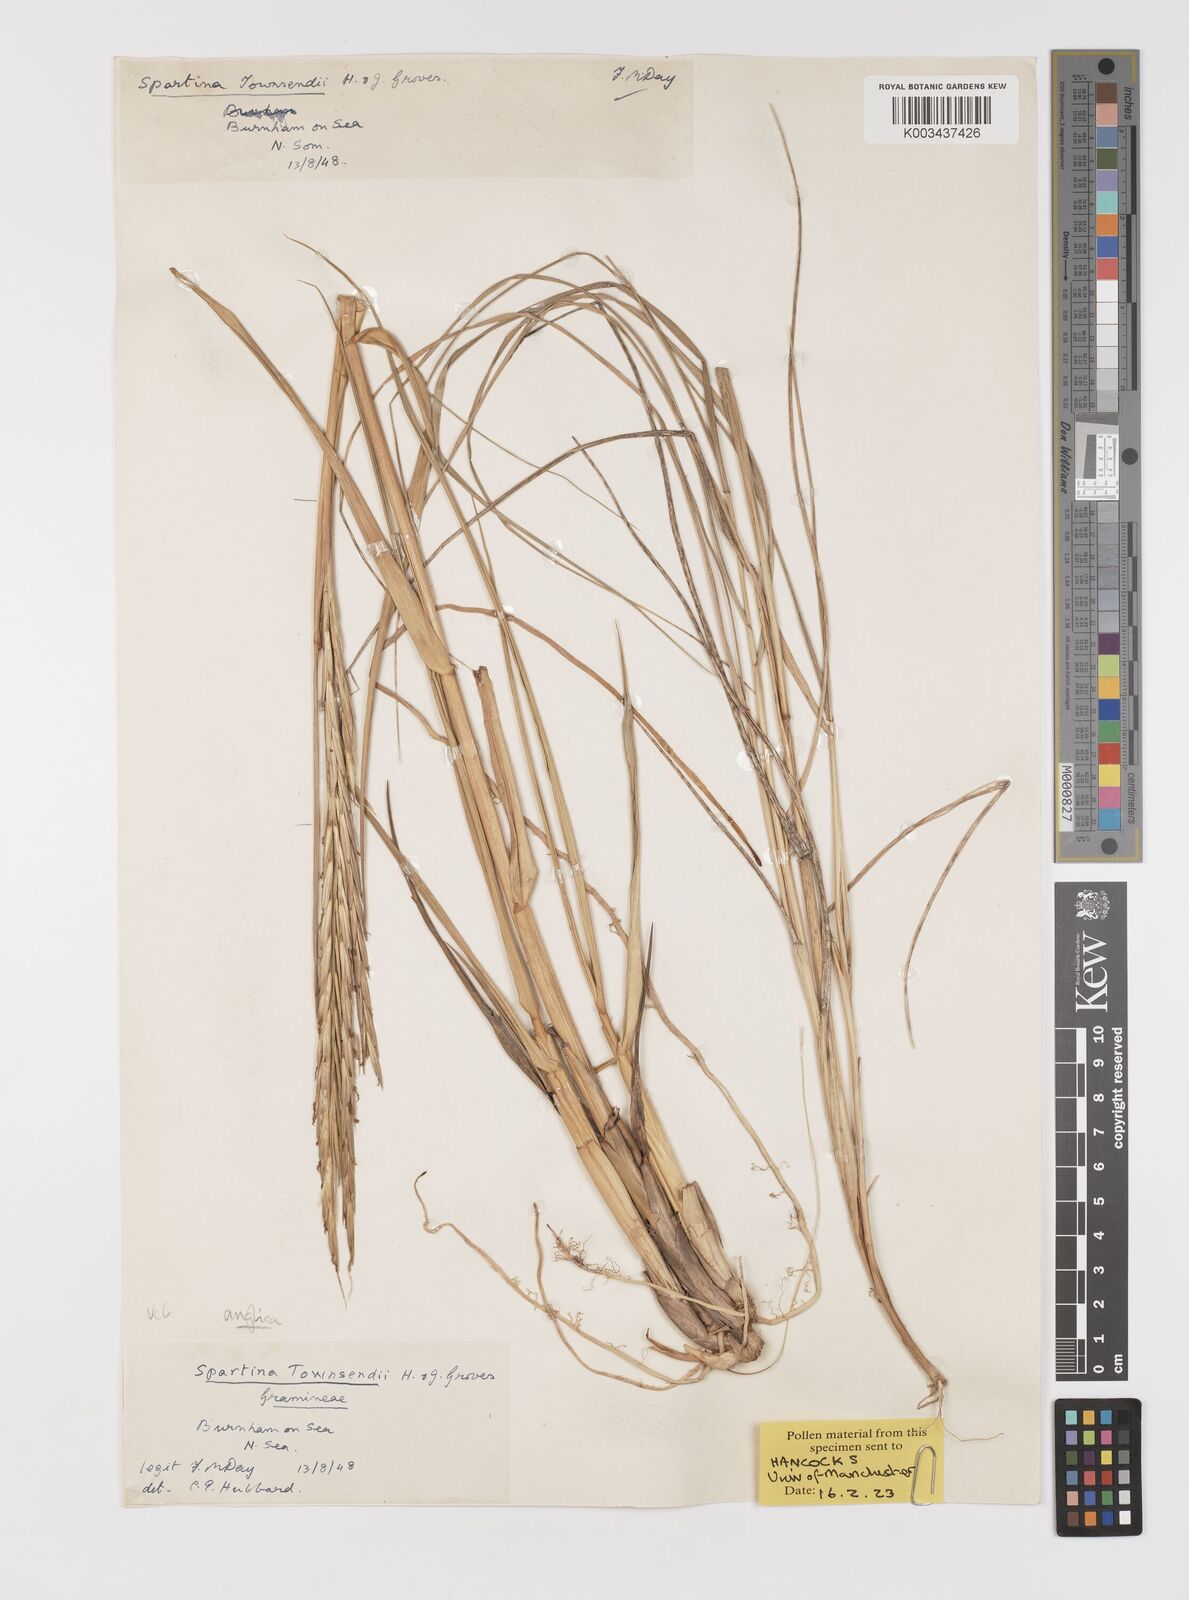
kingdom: Plantae
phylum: Tracheophyta
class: Liliopsida
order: Poales
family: Poaceae
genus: Sporobolus
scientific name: Sporobolus anglicus
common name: English cordgrass
